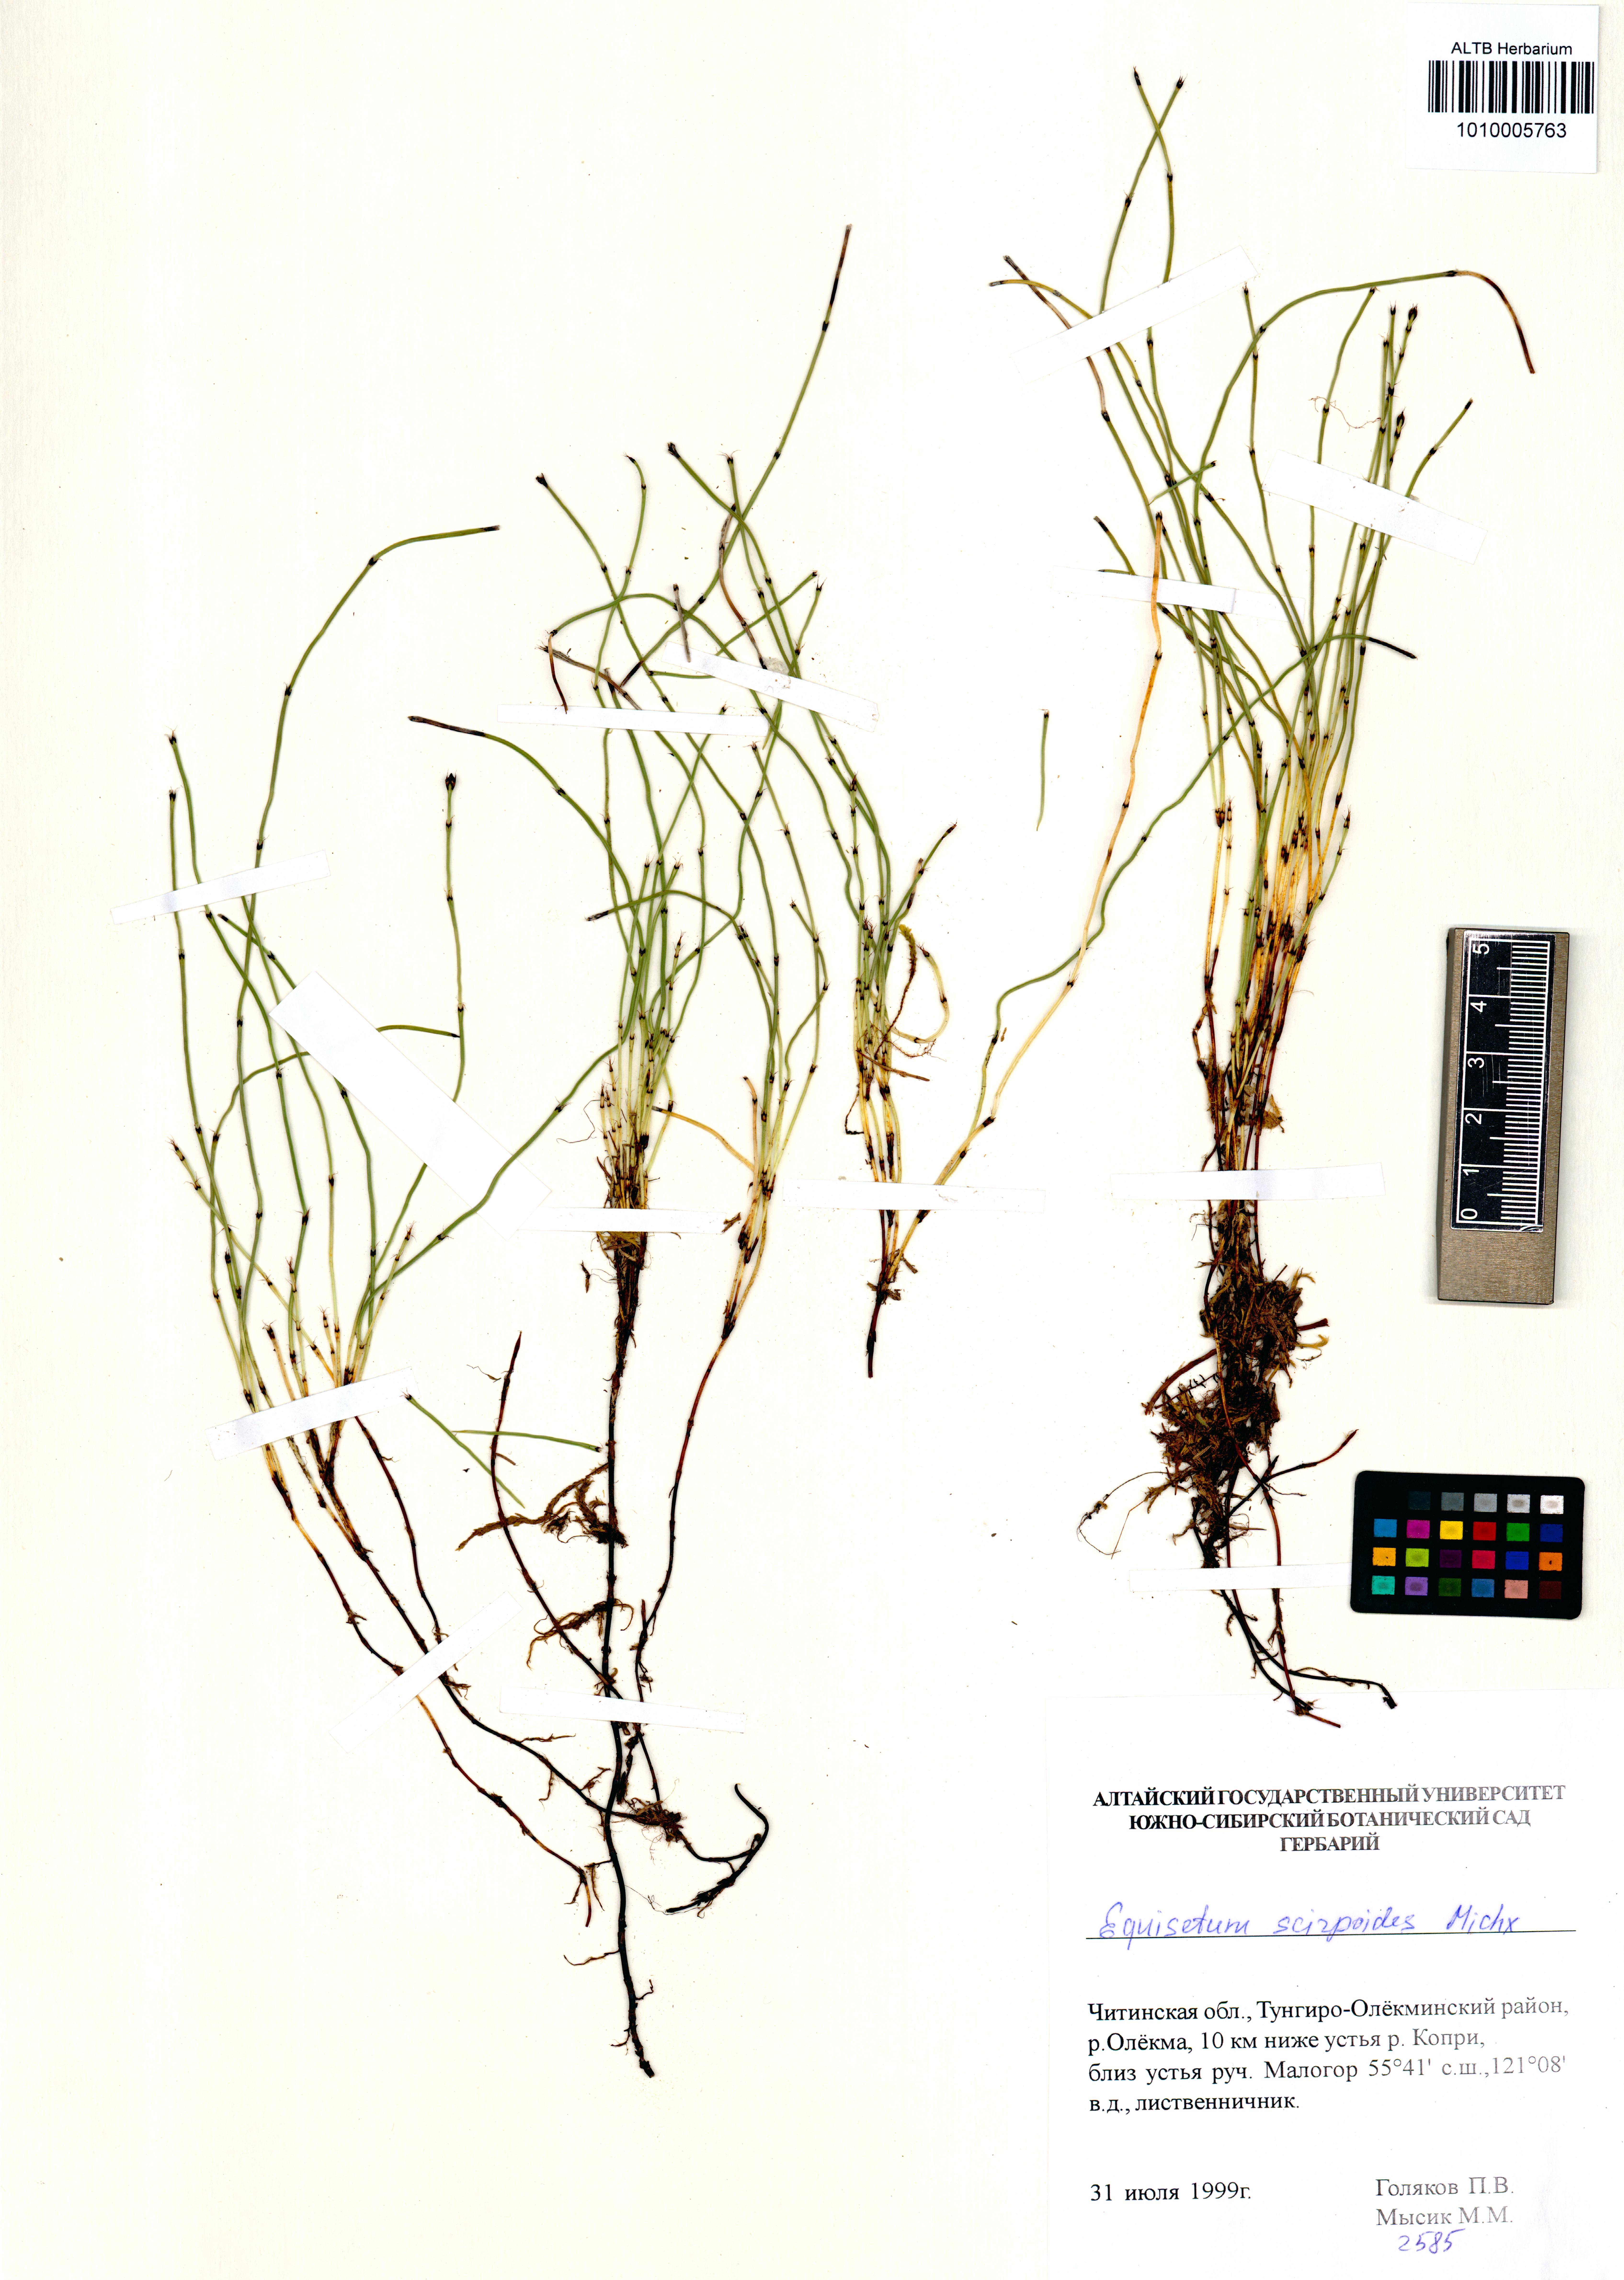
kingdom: Plantae
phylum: Tracheophyta
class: Polypodiopsida
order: Equisetales
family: Equisetaceae
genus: Equisetum
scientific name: Equisetum scirpoides
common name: Delicate horsetail
